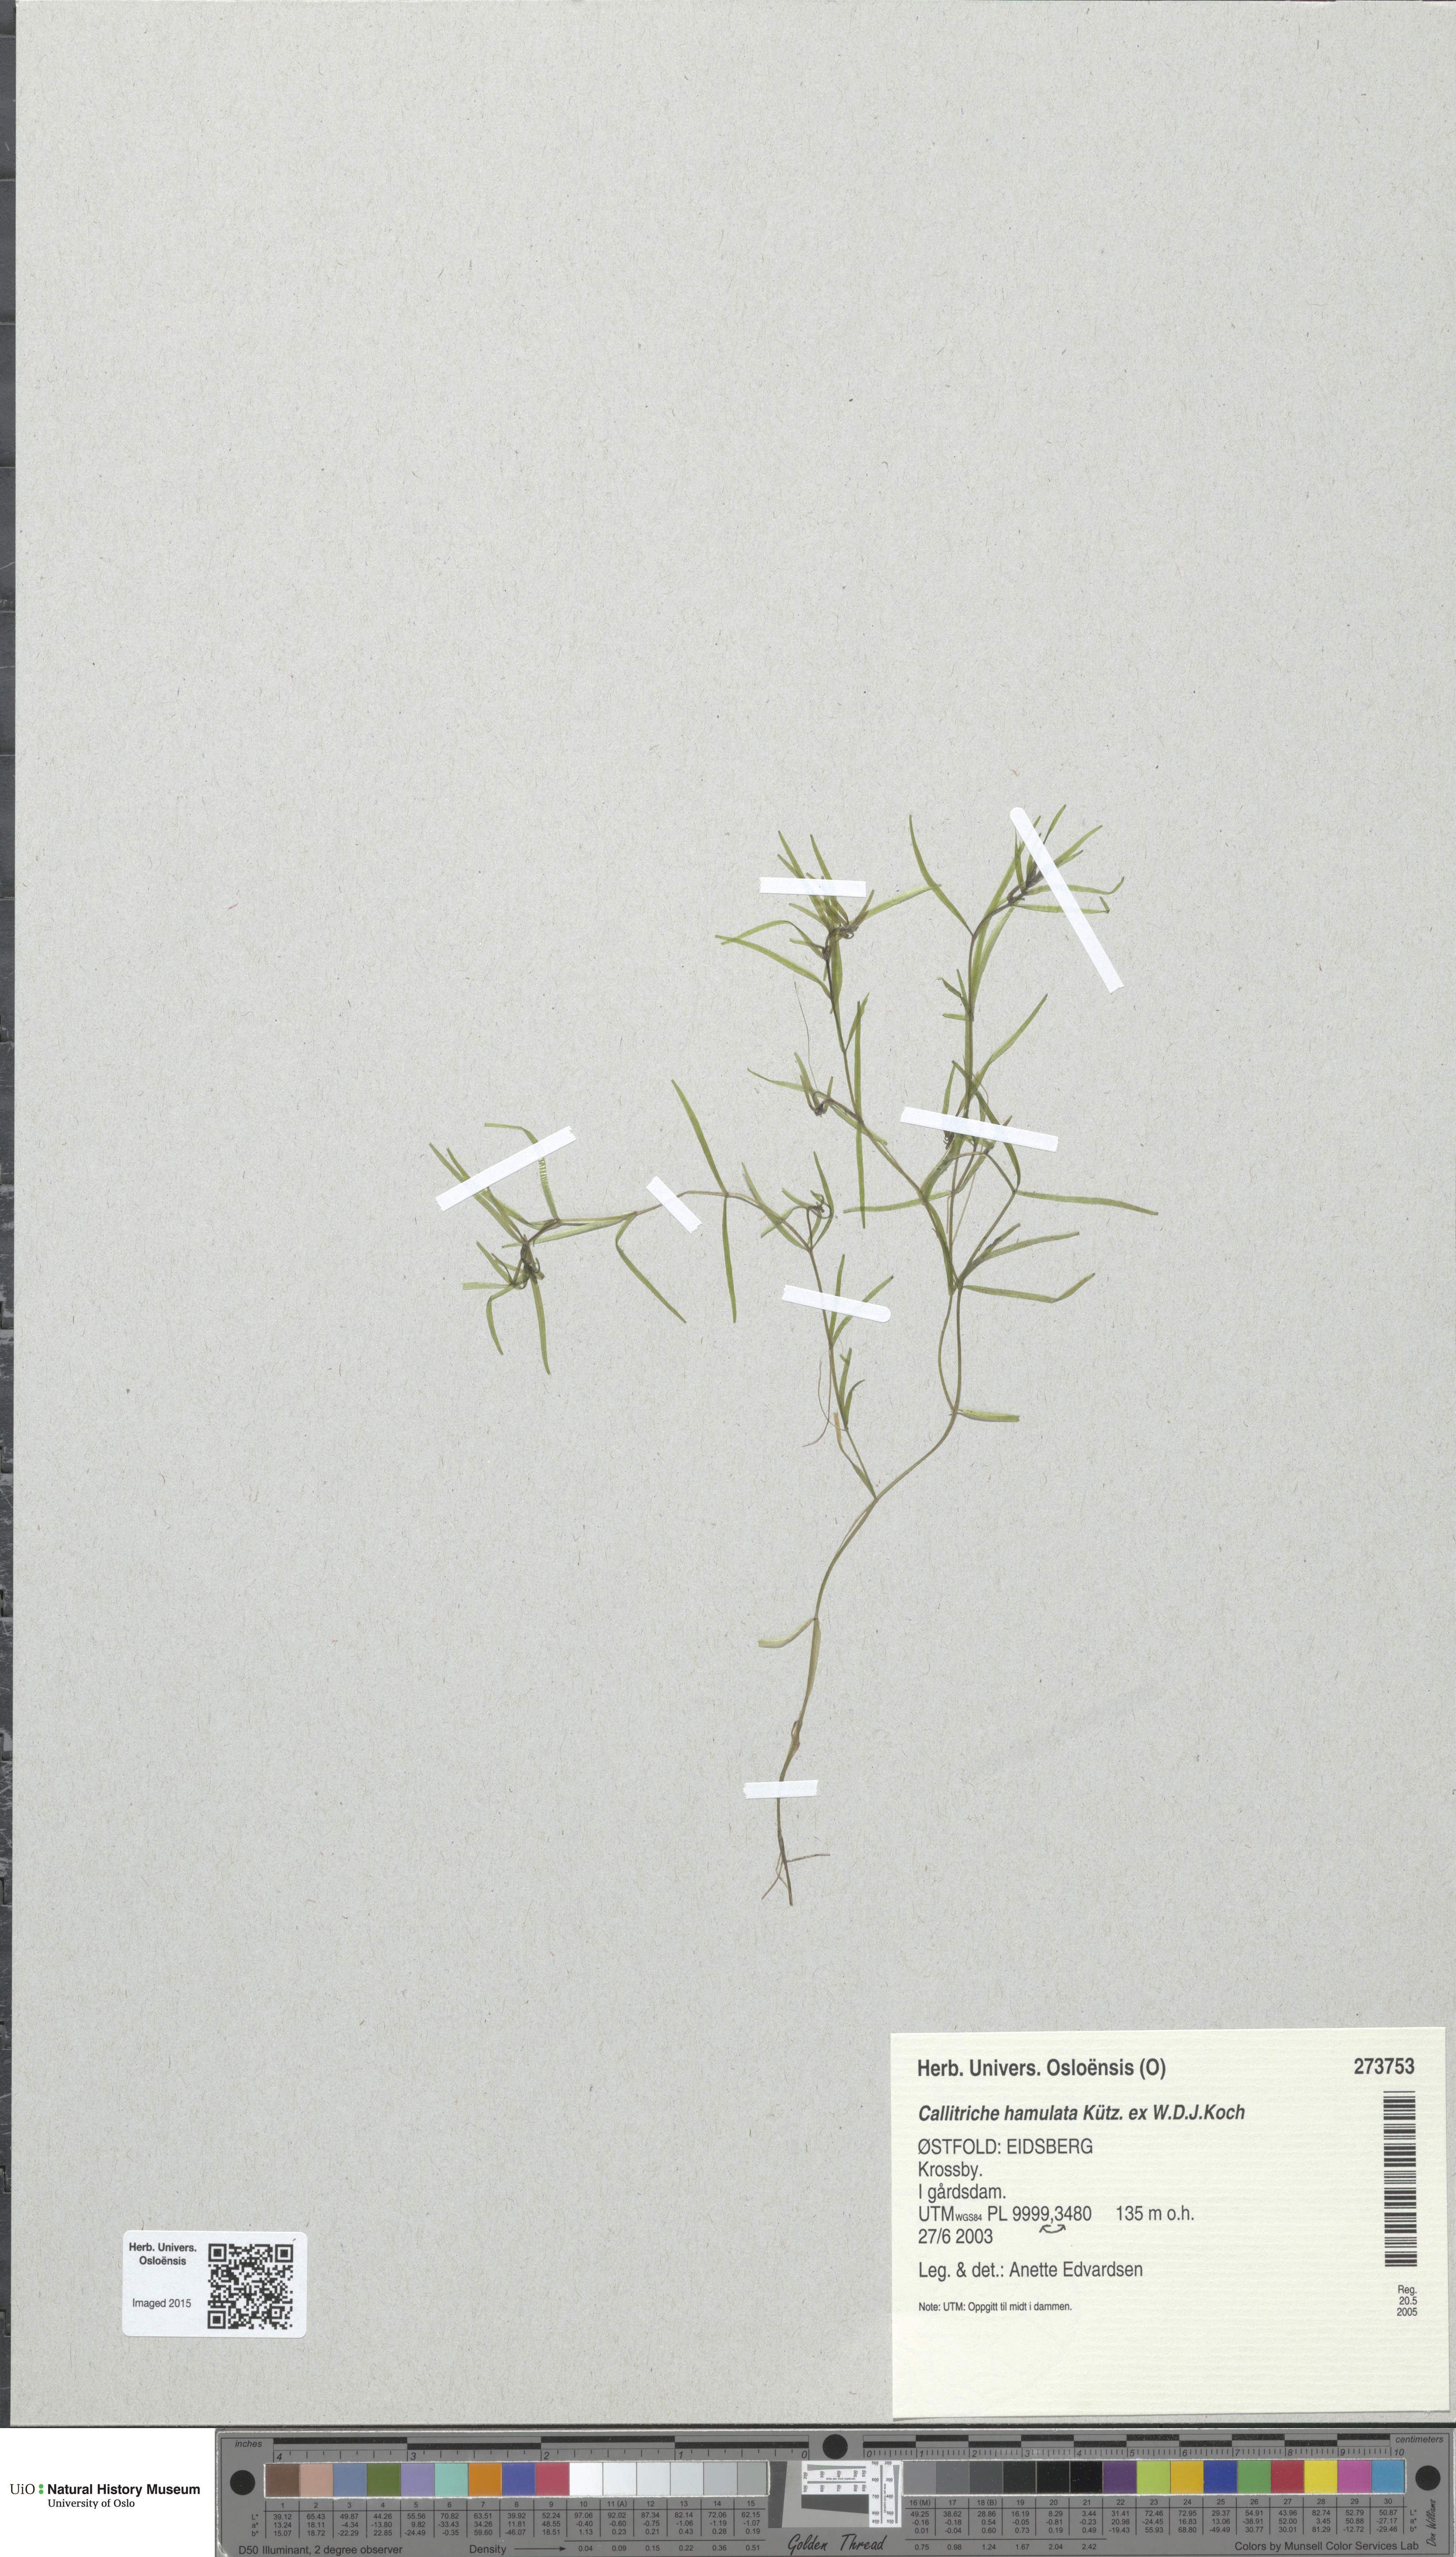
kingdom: Plantae
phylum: Tracheophyta
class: Magnoliopsida
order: Lamiales
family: Plantaginaceae
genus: Callitriche
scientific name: Callitriche hamulata
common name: Intermediate water-starwort
